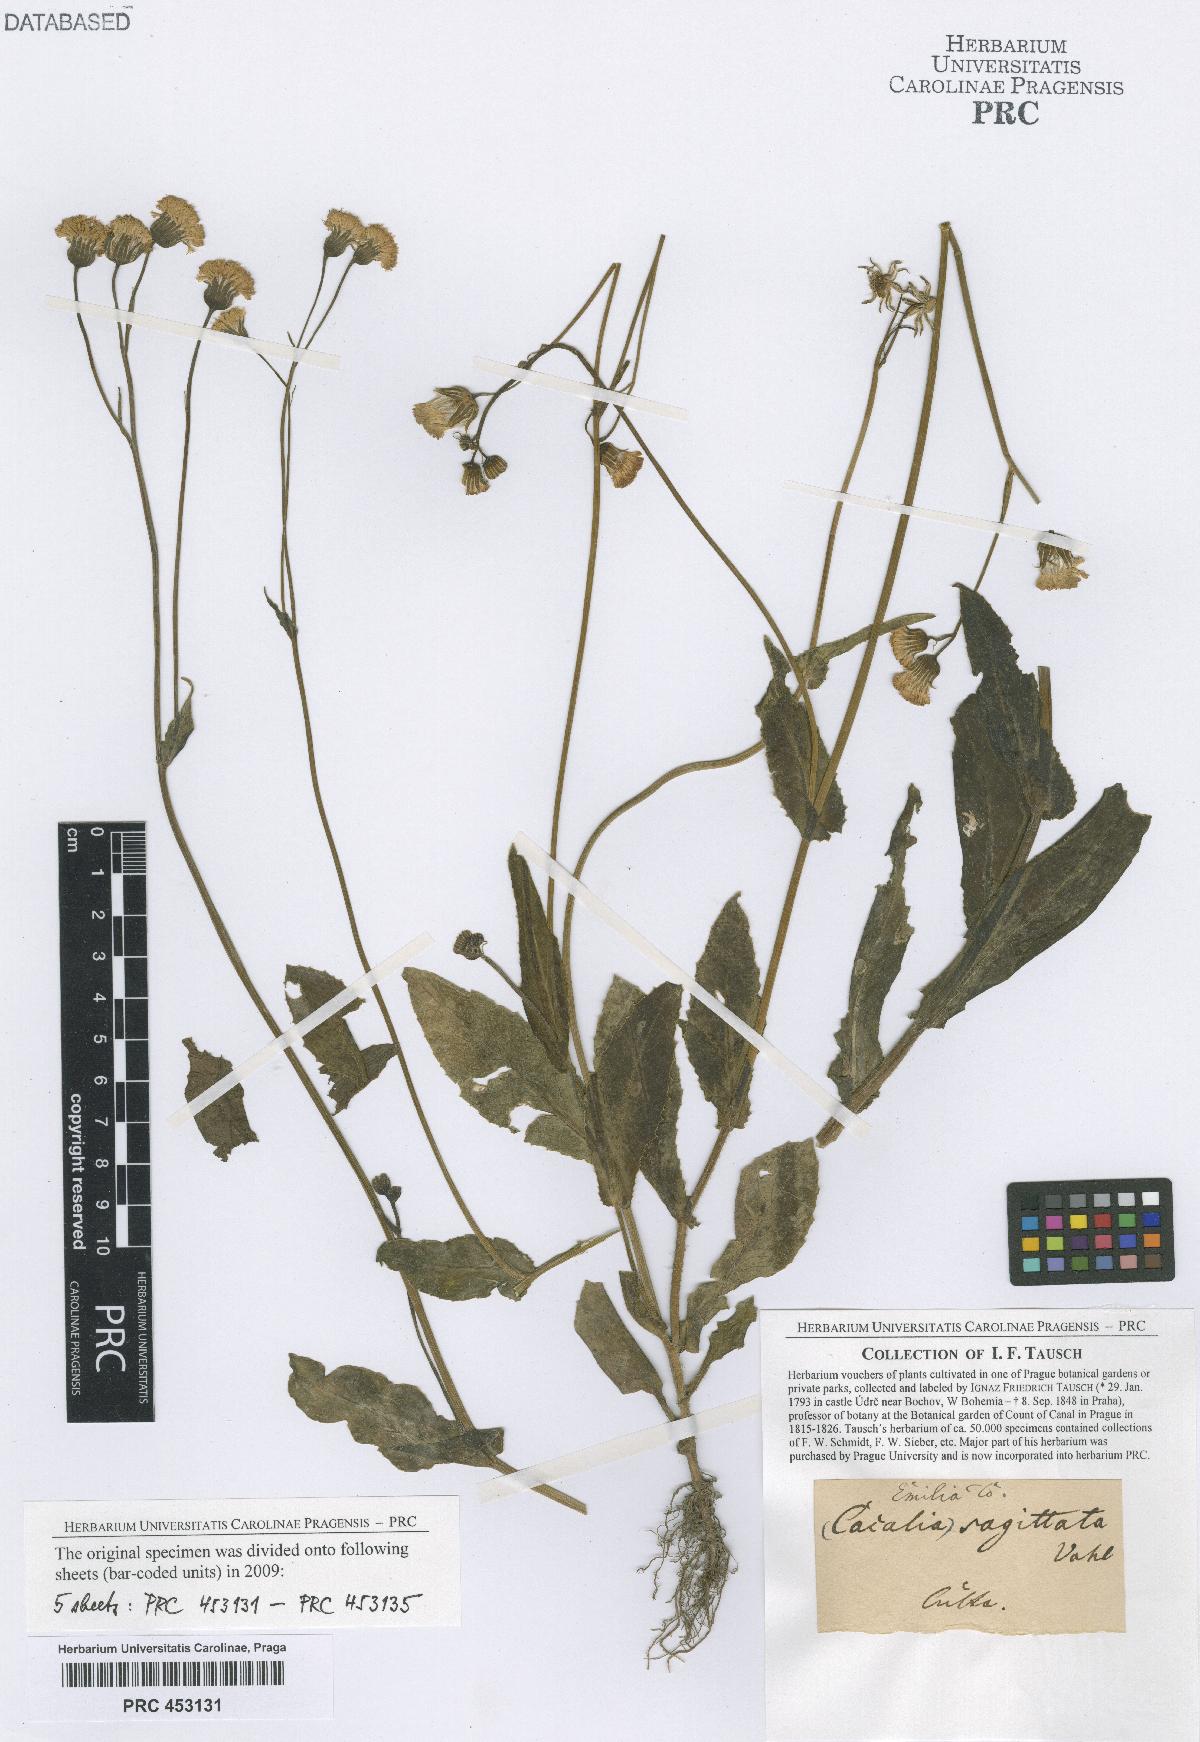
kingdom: Plantae
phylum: Tracheophyta
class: Magnoliopsida
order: Asterales
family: Asteraceae
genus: Adenostyles
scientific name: Adenostyles Cacalia scandens
